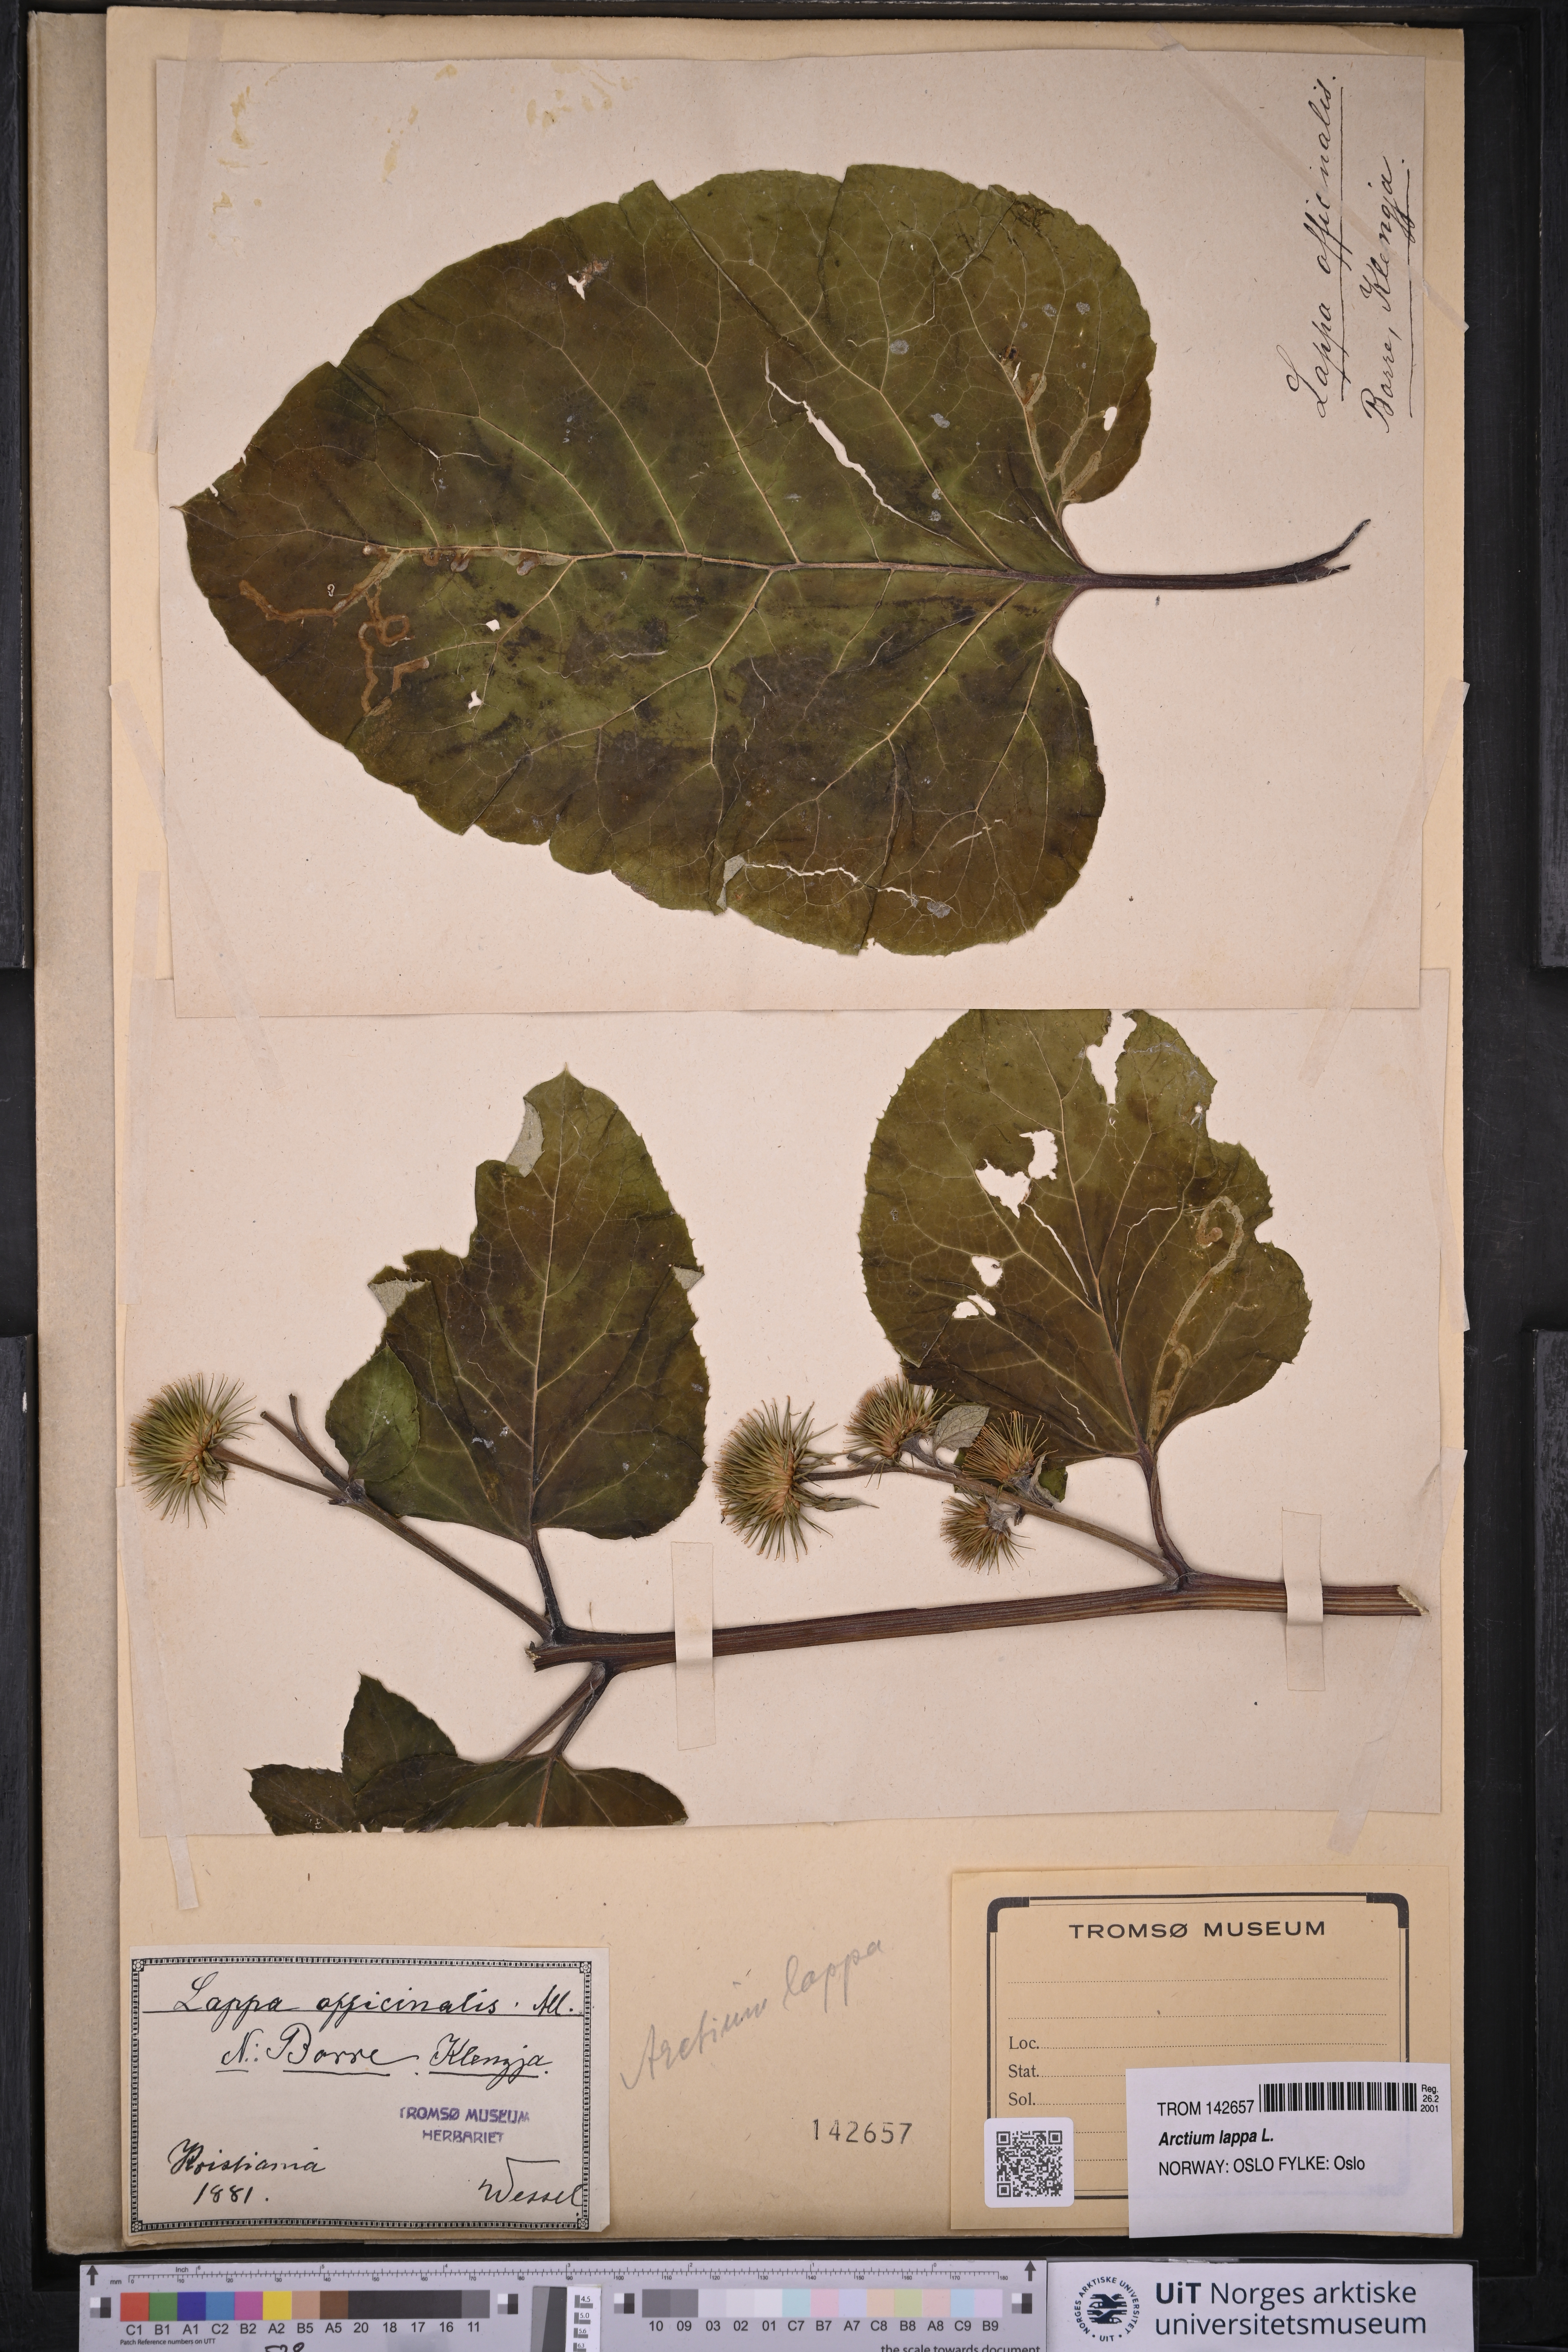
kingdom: Plantae
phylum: Tracheophyta
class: Magnoliopsida
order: Asterales
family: Asteraceae
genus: Arctium
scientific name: Arctium lappa
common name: Greater burdock
